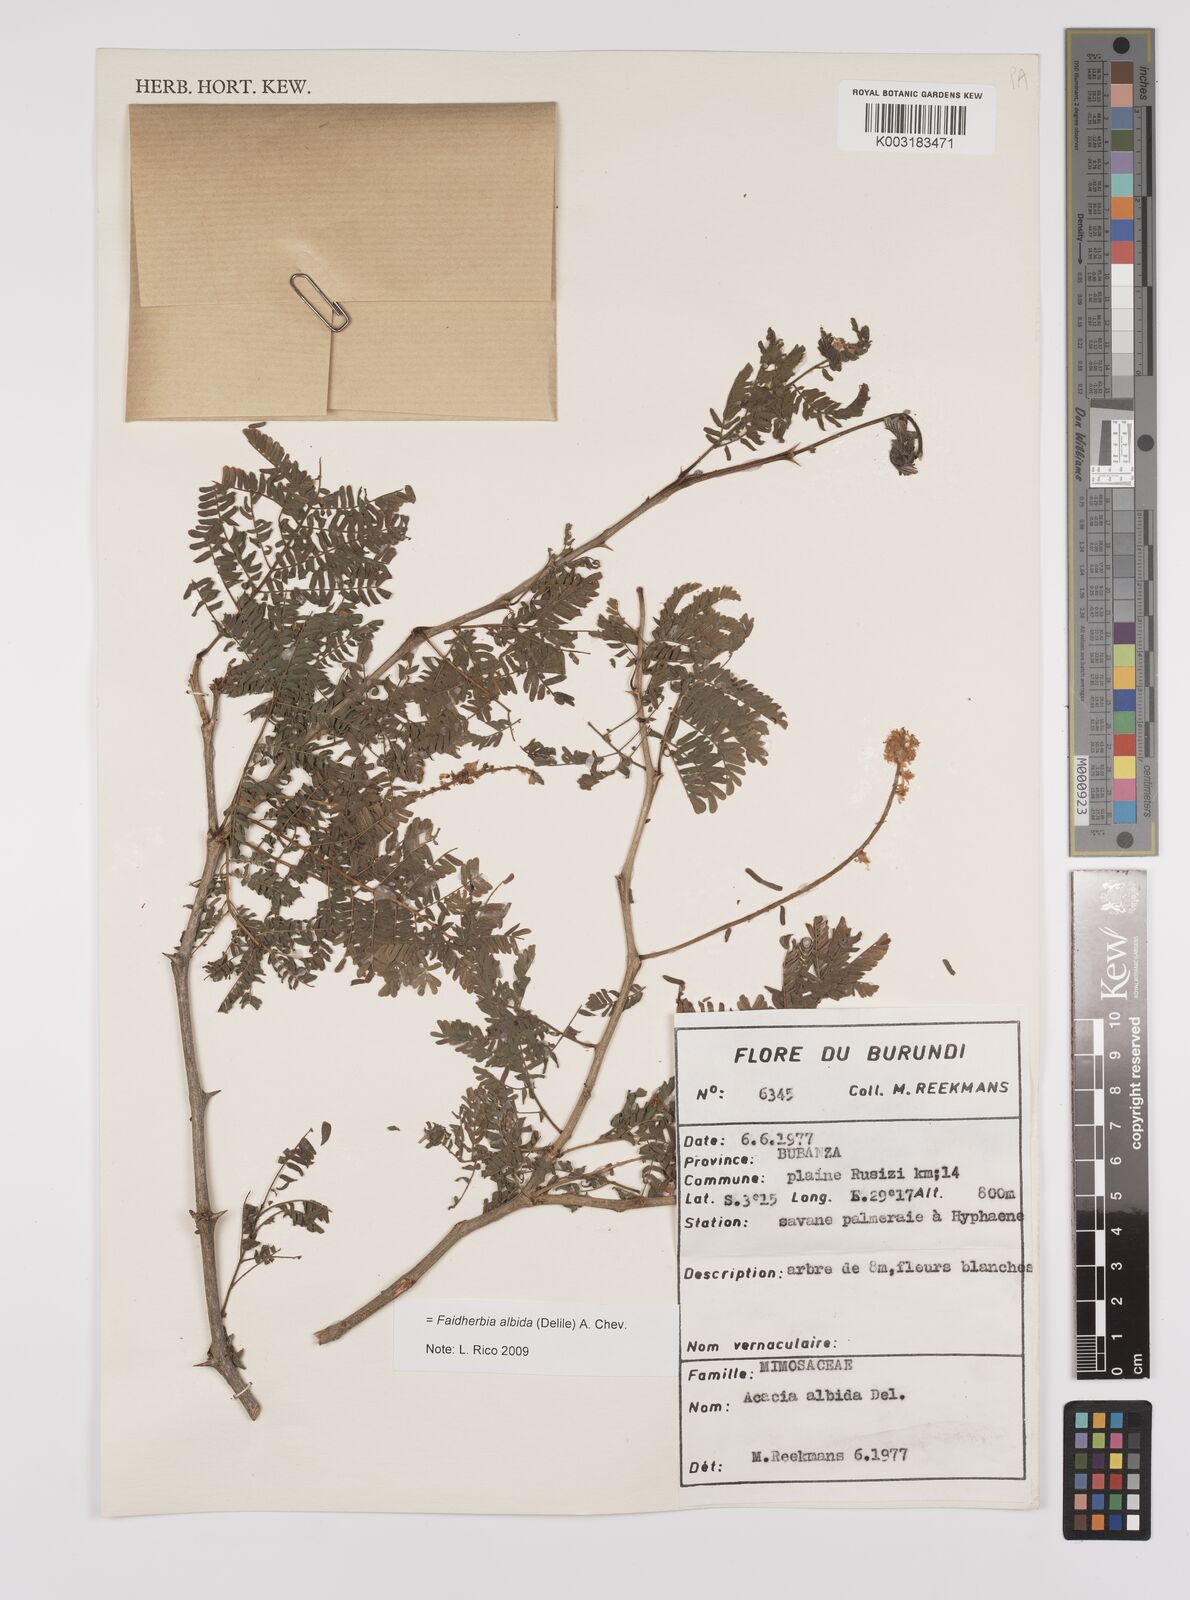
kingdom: Plantae
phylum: Tracheophyta
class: Magnoliopsida
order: Fabales
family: Fabaceae
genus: Faidherbia
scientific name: Faidherbia albida
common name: Anatree
